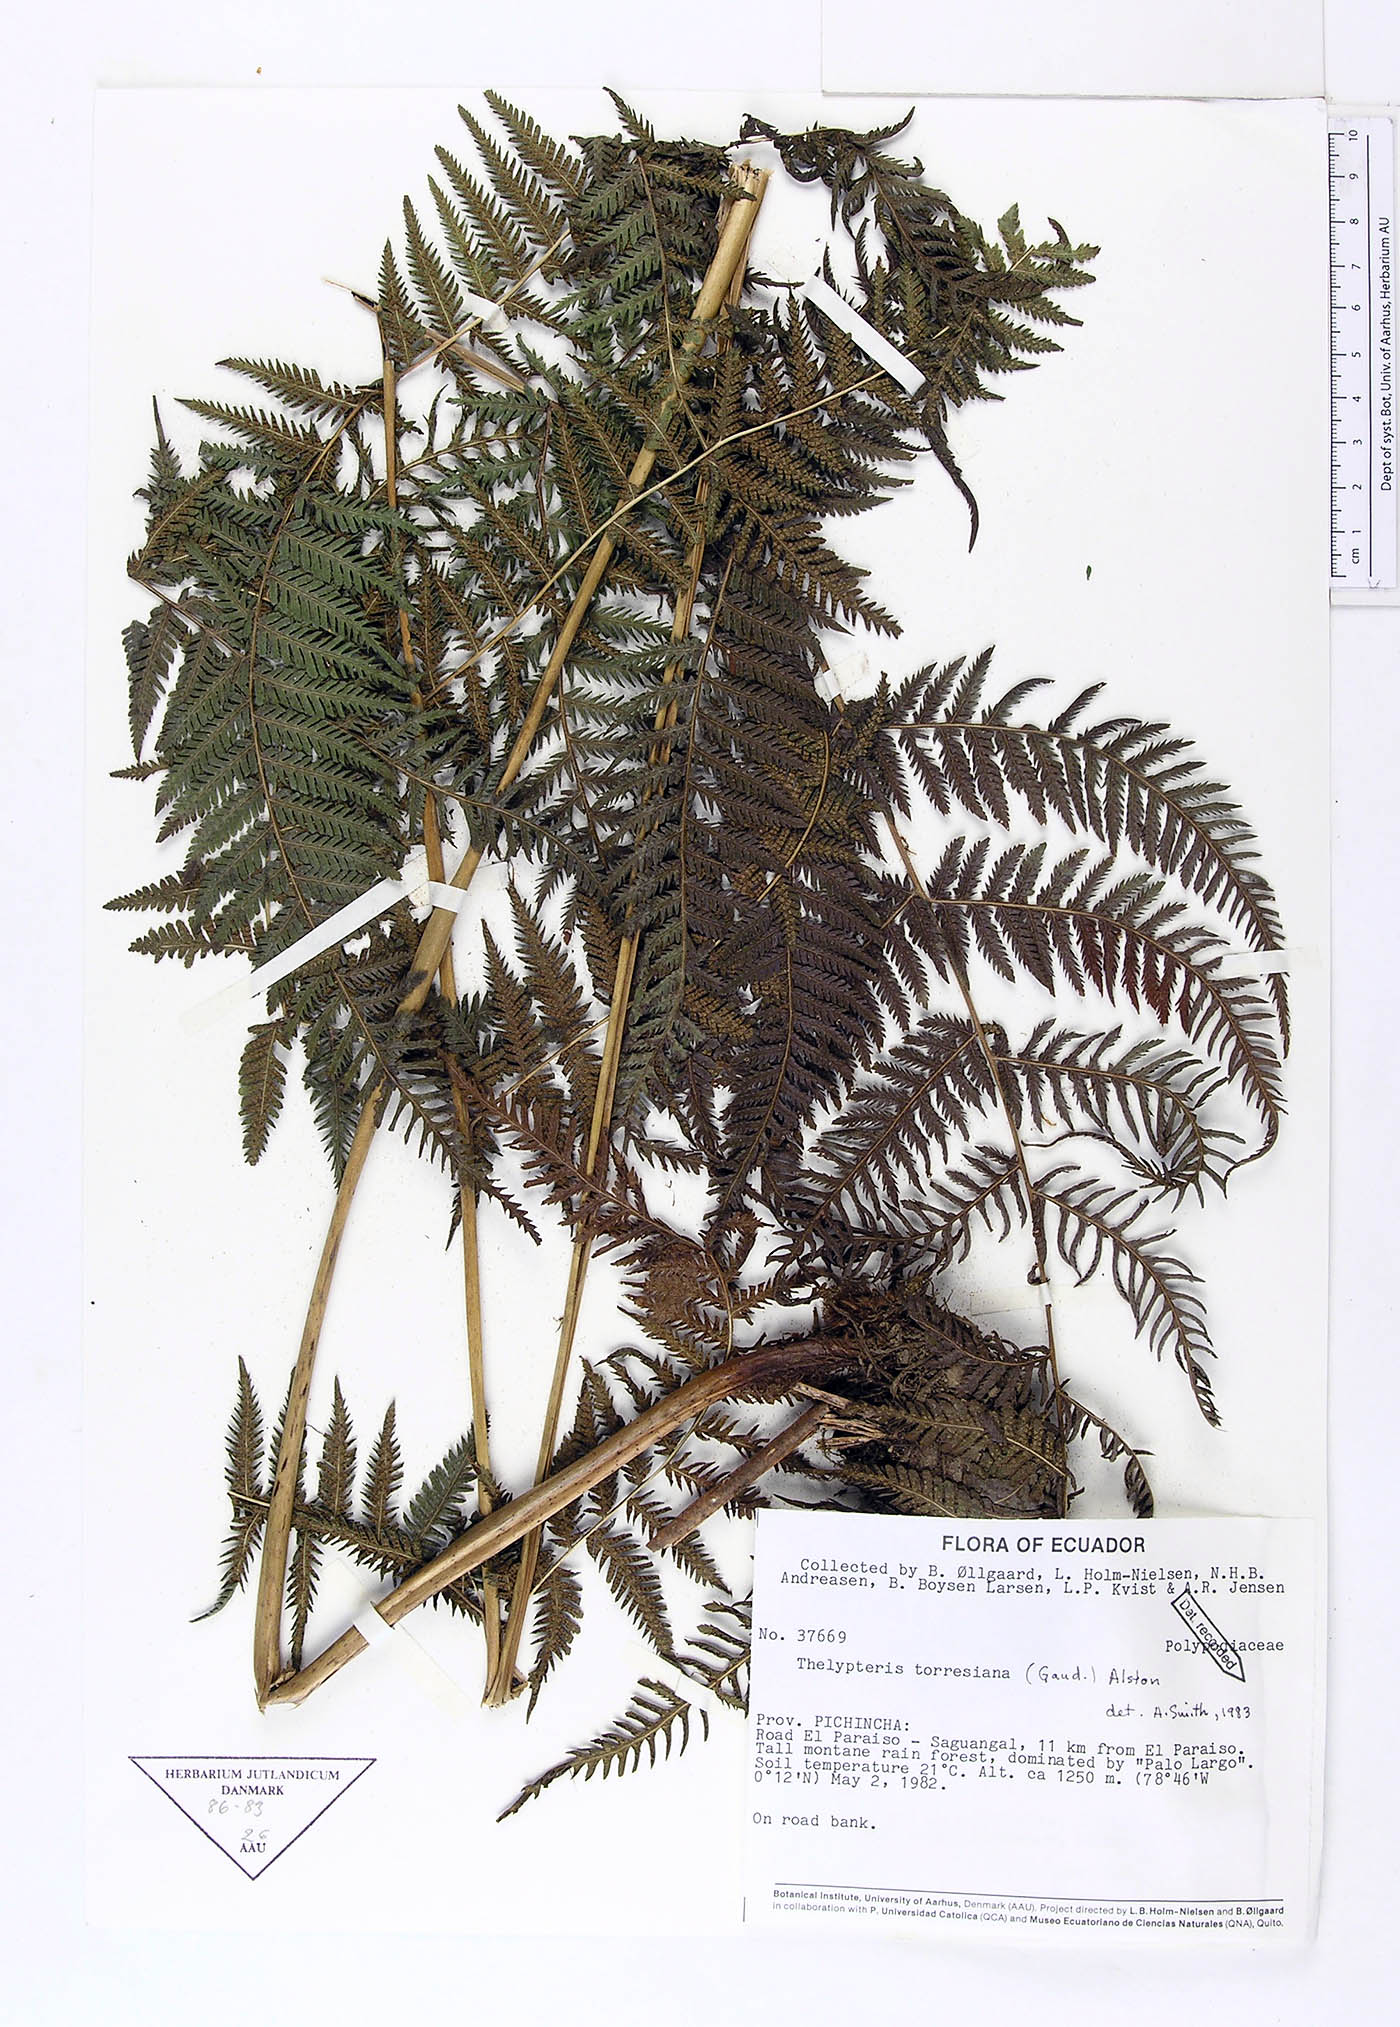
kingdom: Plantae
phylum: Tracheophyta
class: Polypodiopsida
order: Polypodiales
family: Thelypteridaceae
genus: Macrothelypteris
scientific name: Macrothelypteris torresiana
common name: Swordfern
